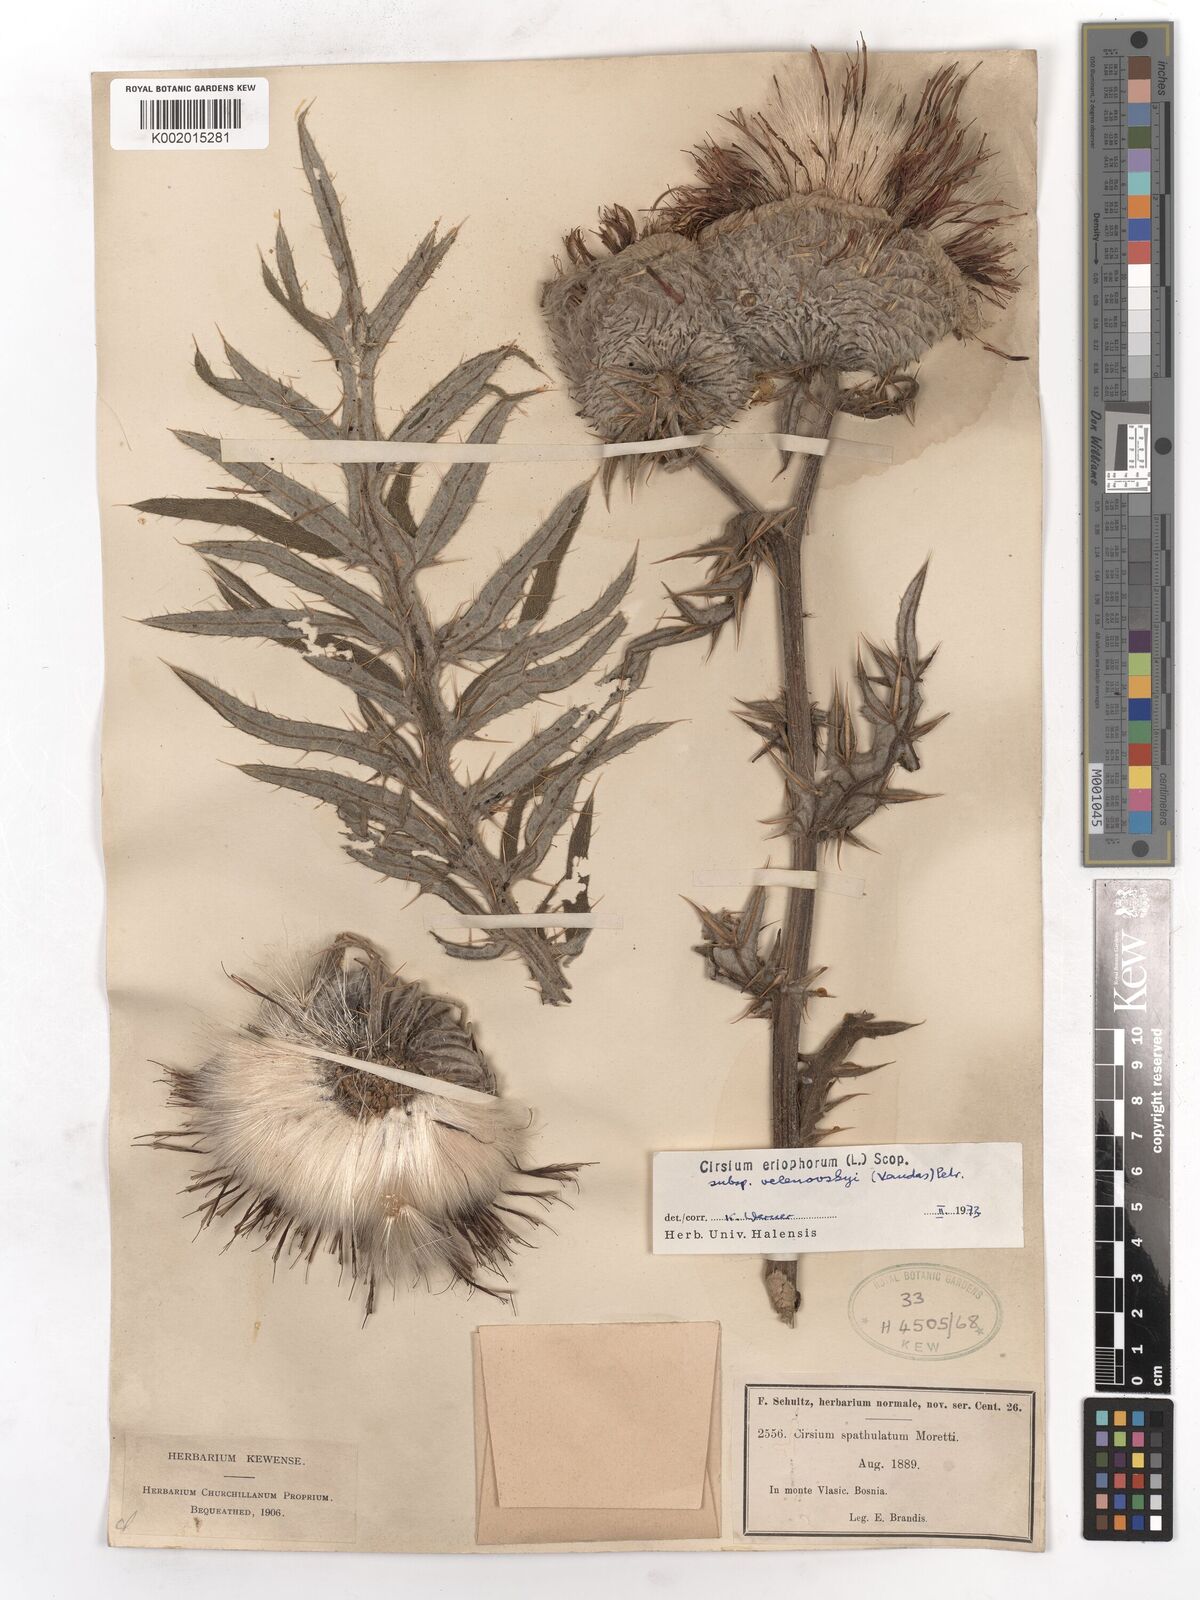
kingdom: Plantae
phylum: Tracheophyta
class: Magnoliopsida
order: Asterales
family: Asteraceae
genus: Lophiolepis
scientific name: Lophiolepis eriophora
